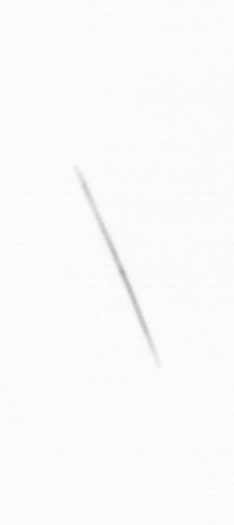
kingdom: Chromista
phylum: Ochrophyta
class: Bacillariophyceae
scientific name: Bacillariophyceae
